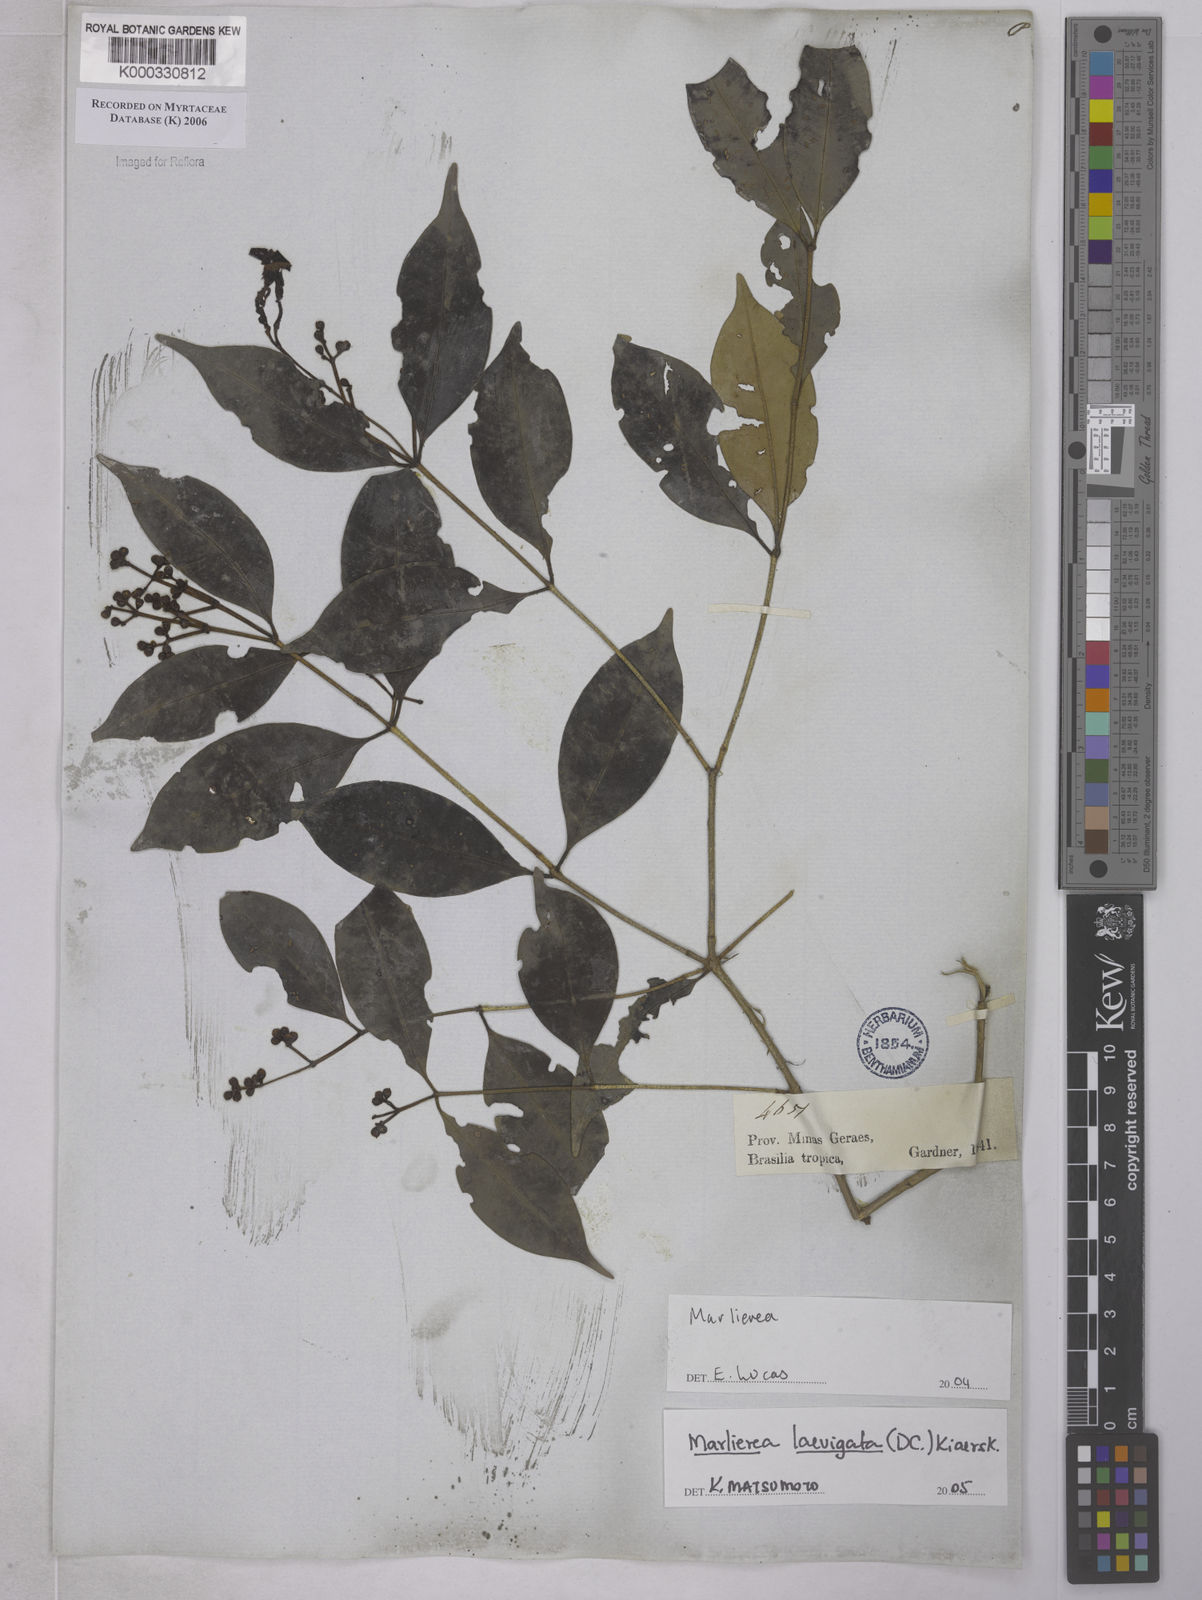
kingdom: Plantae
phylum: Tracheophyta
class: Magnoliopsida
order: Myrtales
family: Myrtaceae
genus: Myrcia
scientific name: Myrcia multipunctata
